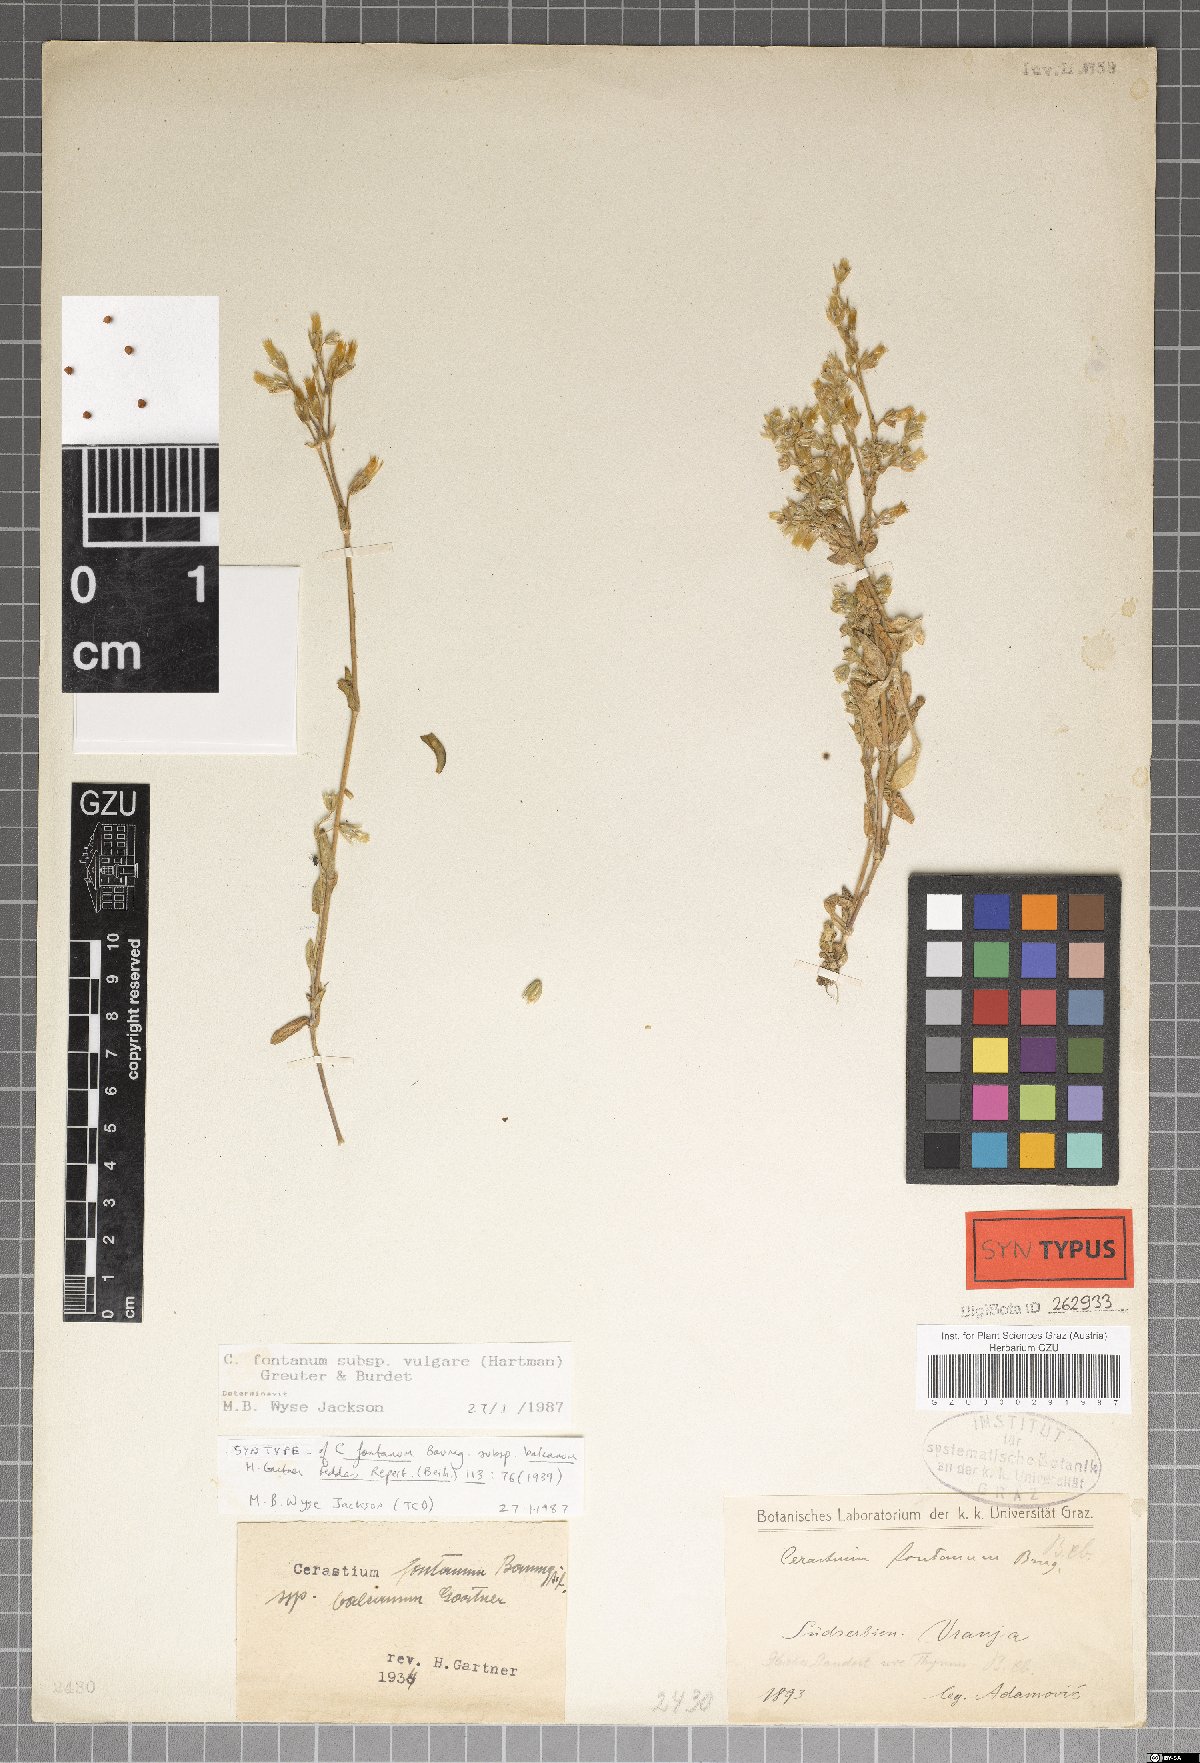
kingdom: Plantae
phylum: Tracheophyta
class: Magnoliopsida
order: Caryophyllales
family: Caryophyllaceae
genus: Cerastium
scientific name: Cerastium holosteoides
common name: Big chickweed
